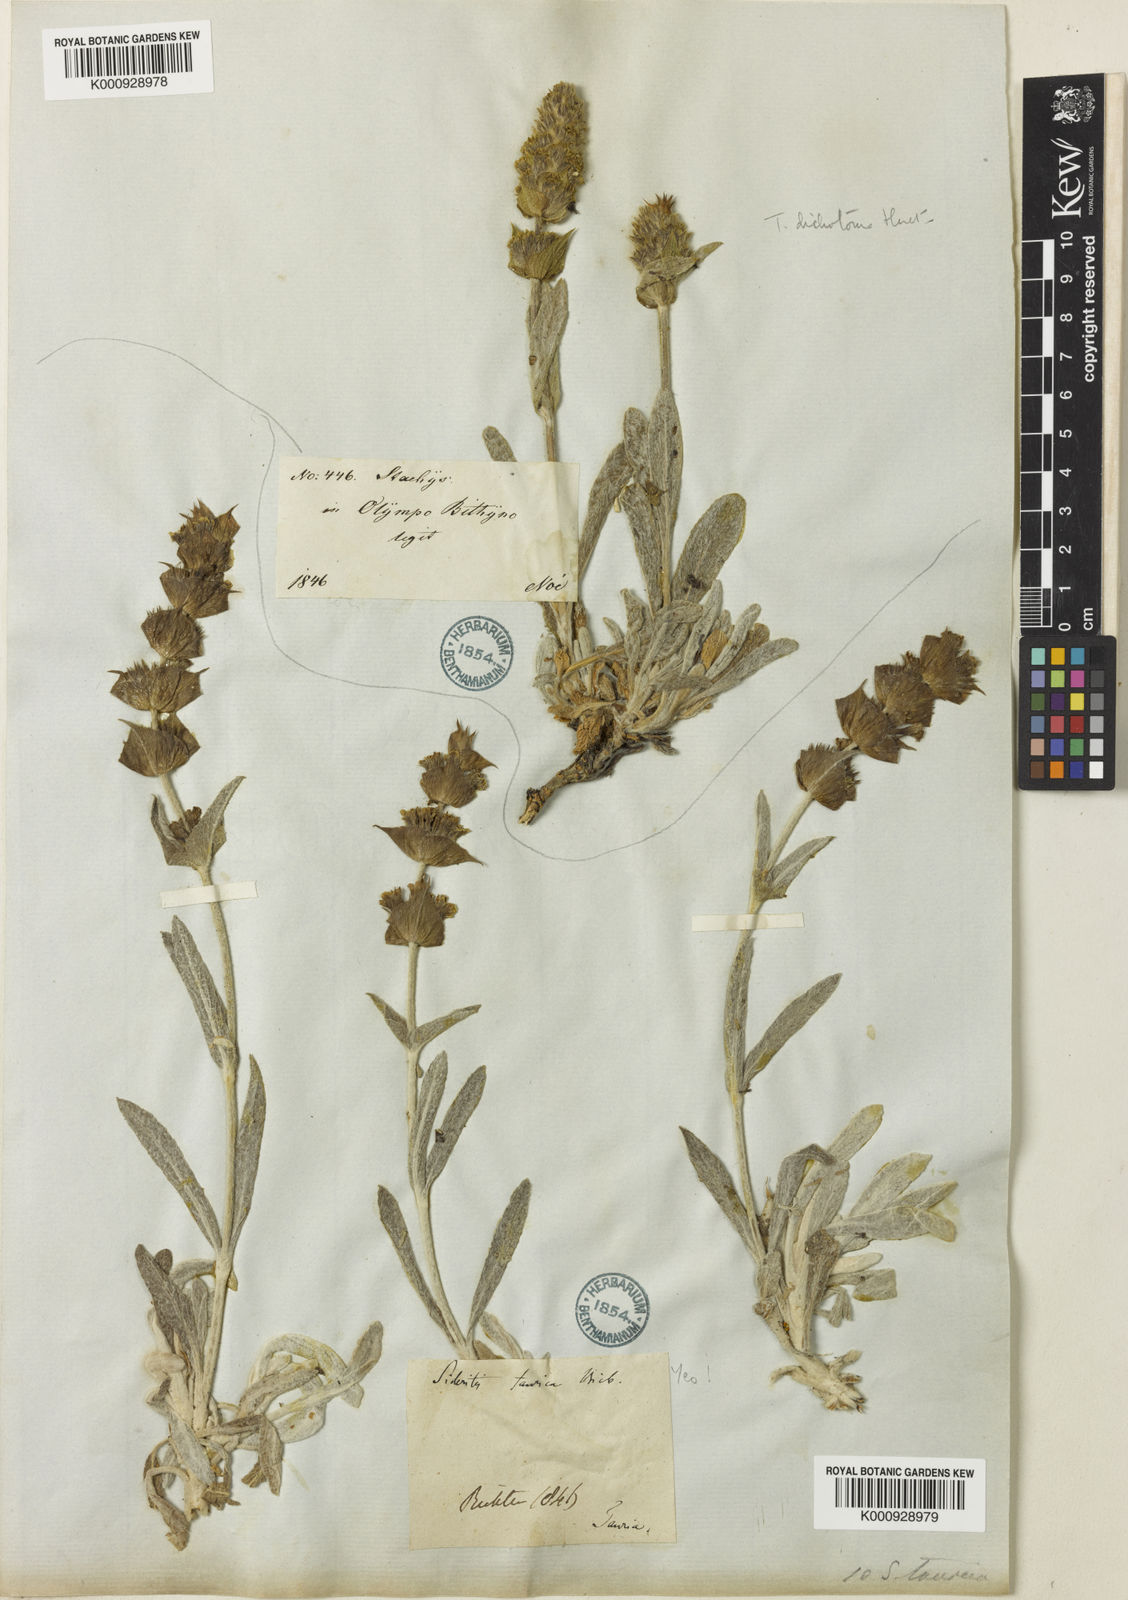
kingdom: Plantae
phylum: Tracheophyta
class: Magnoliopsida
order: Lamiales
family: Lamiaceae
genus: Sideritis
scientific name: Sideritis pisidica
